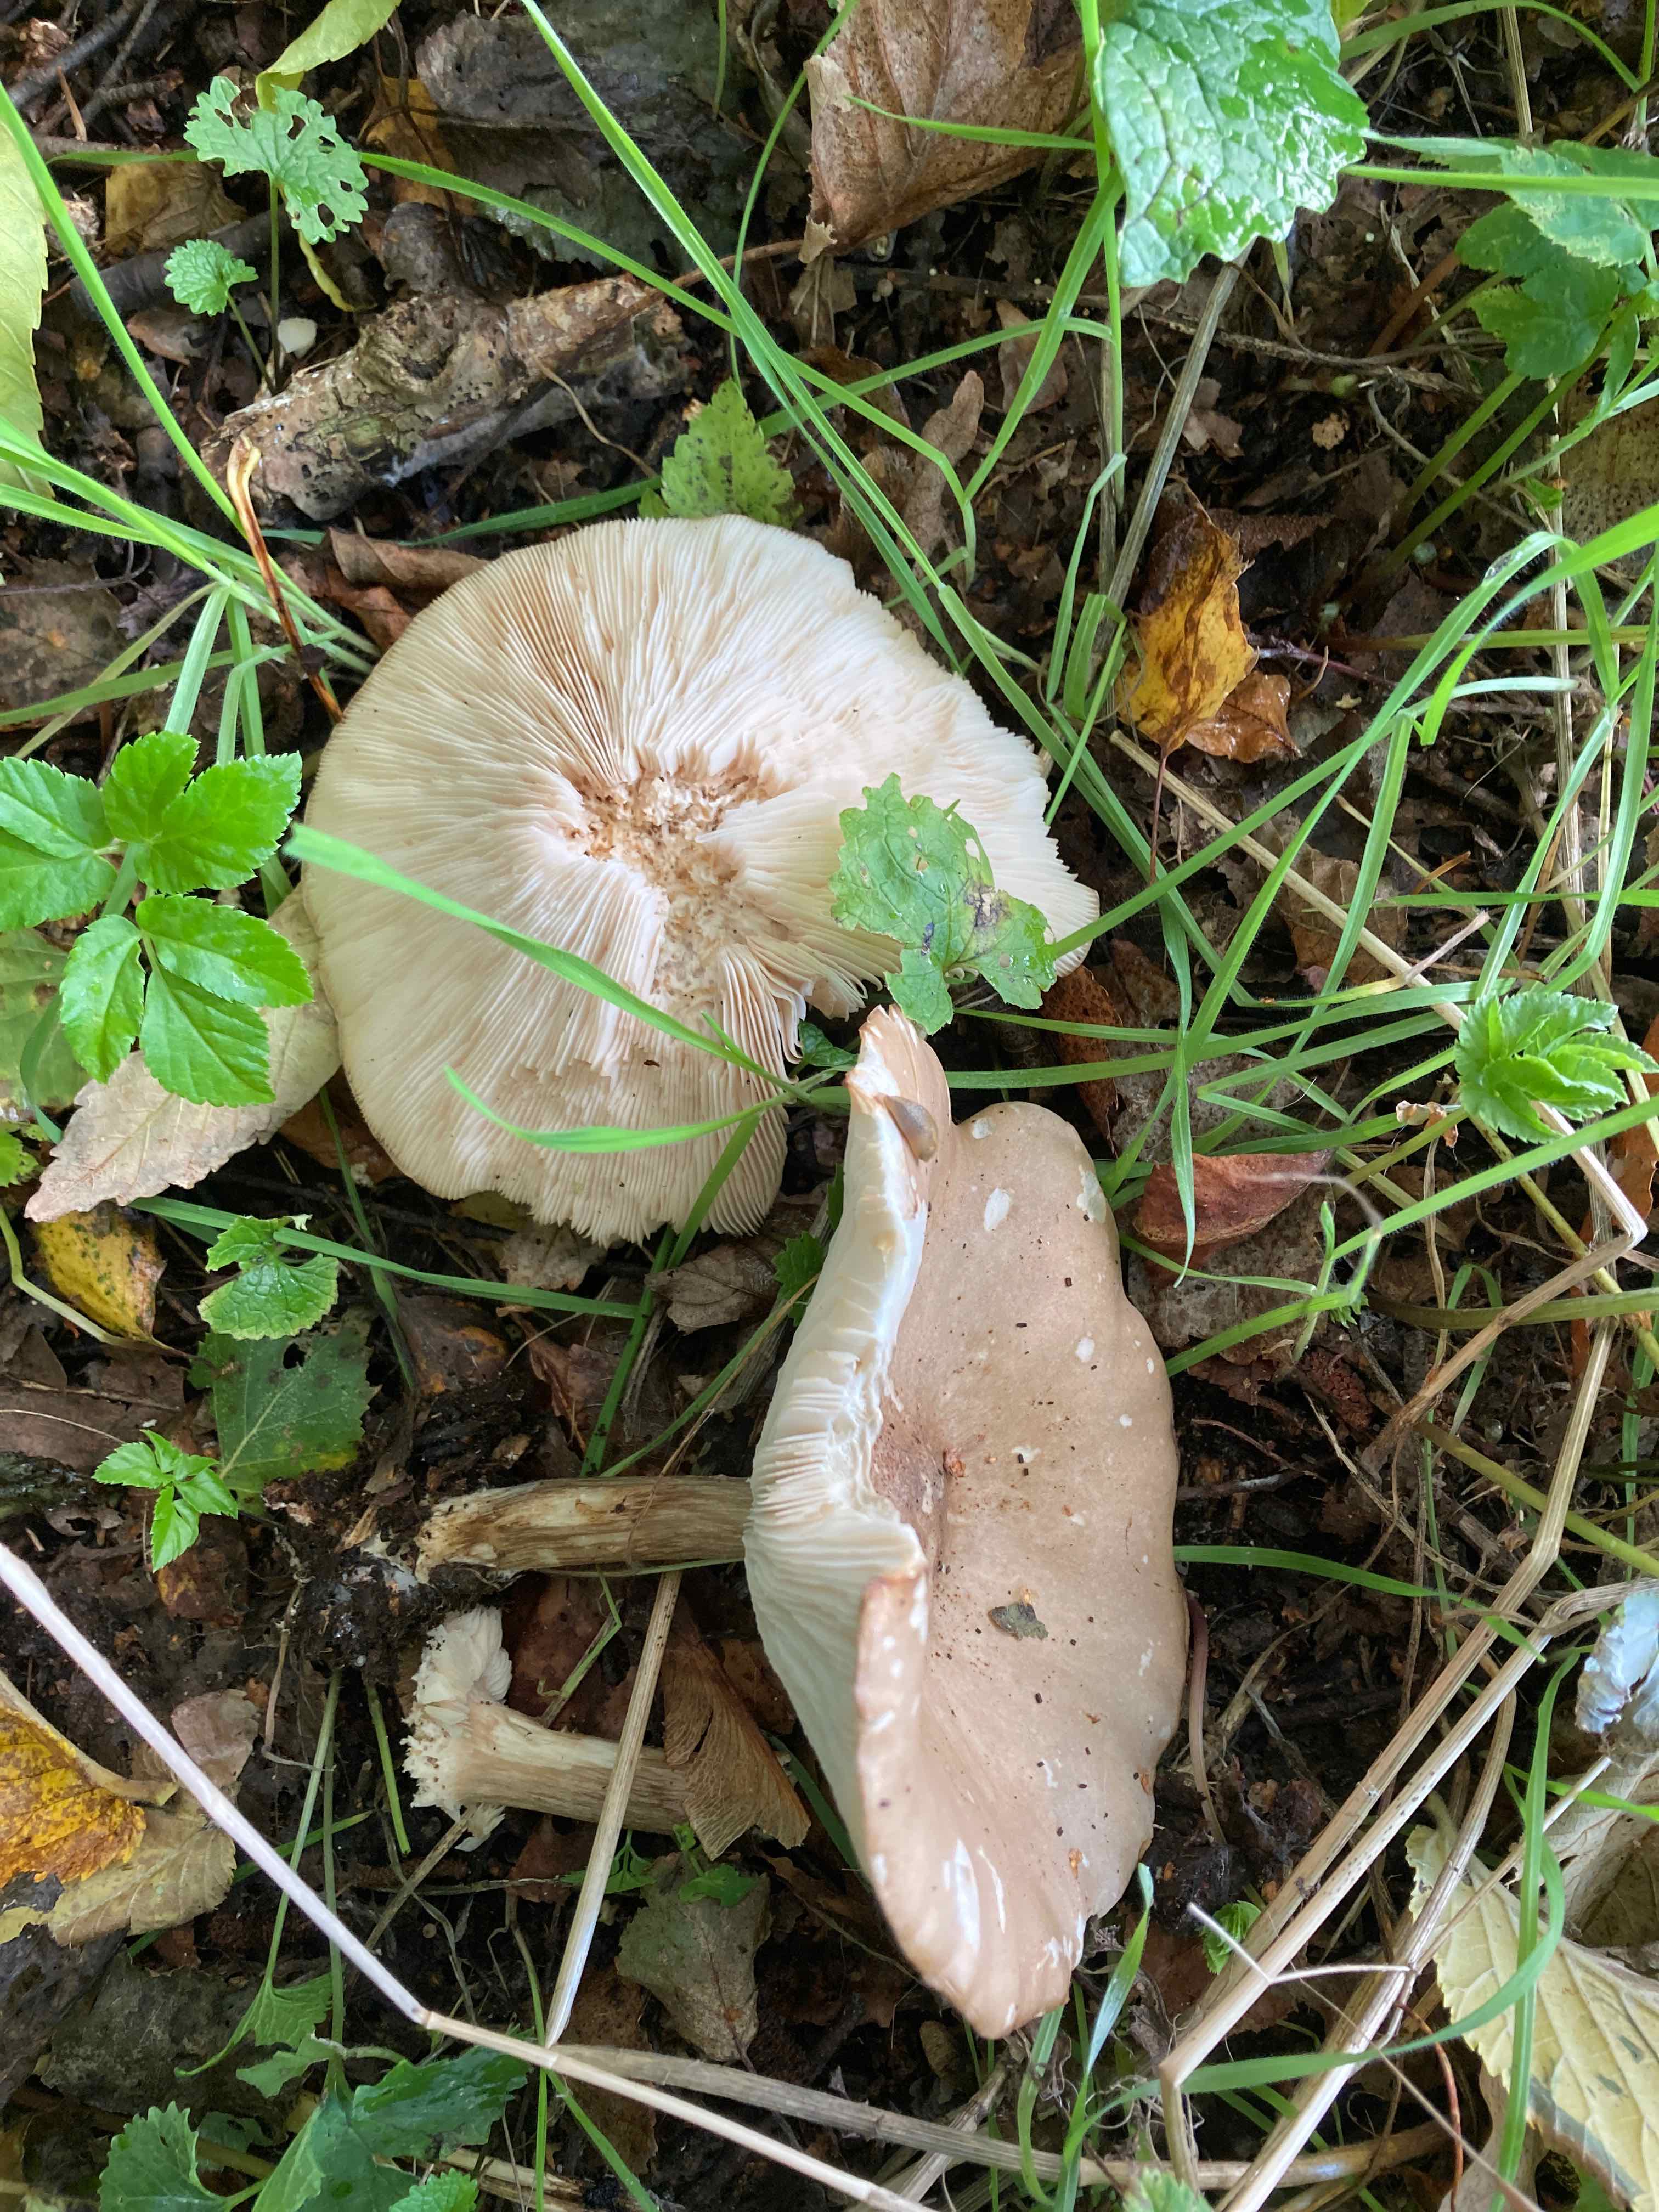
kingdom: Fungi
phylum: Basidiomycota
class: Agaricomycetes
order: Agaricales
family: Tricholomataceae
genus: Melanoleuca
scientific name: Melanoleuca grammopodia
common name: stribestokket munkehat
